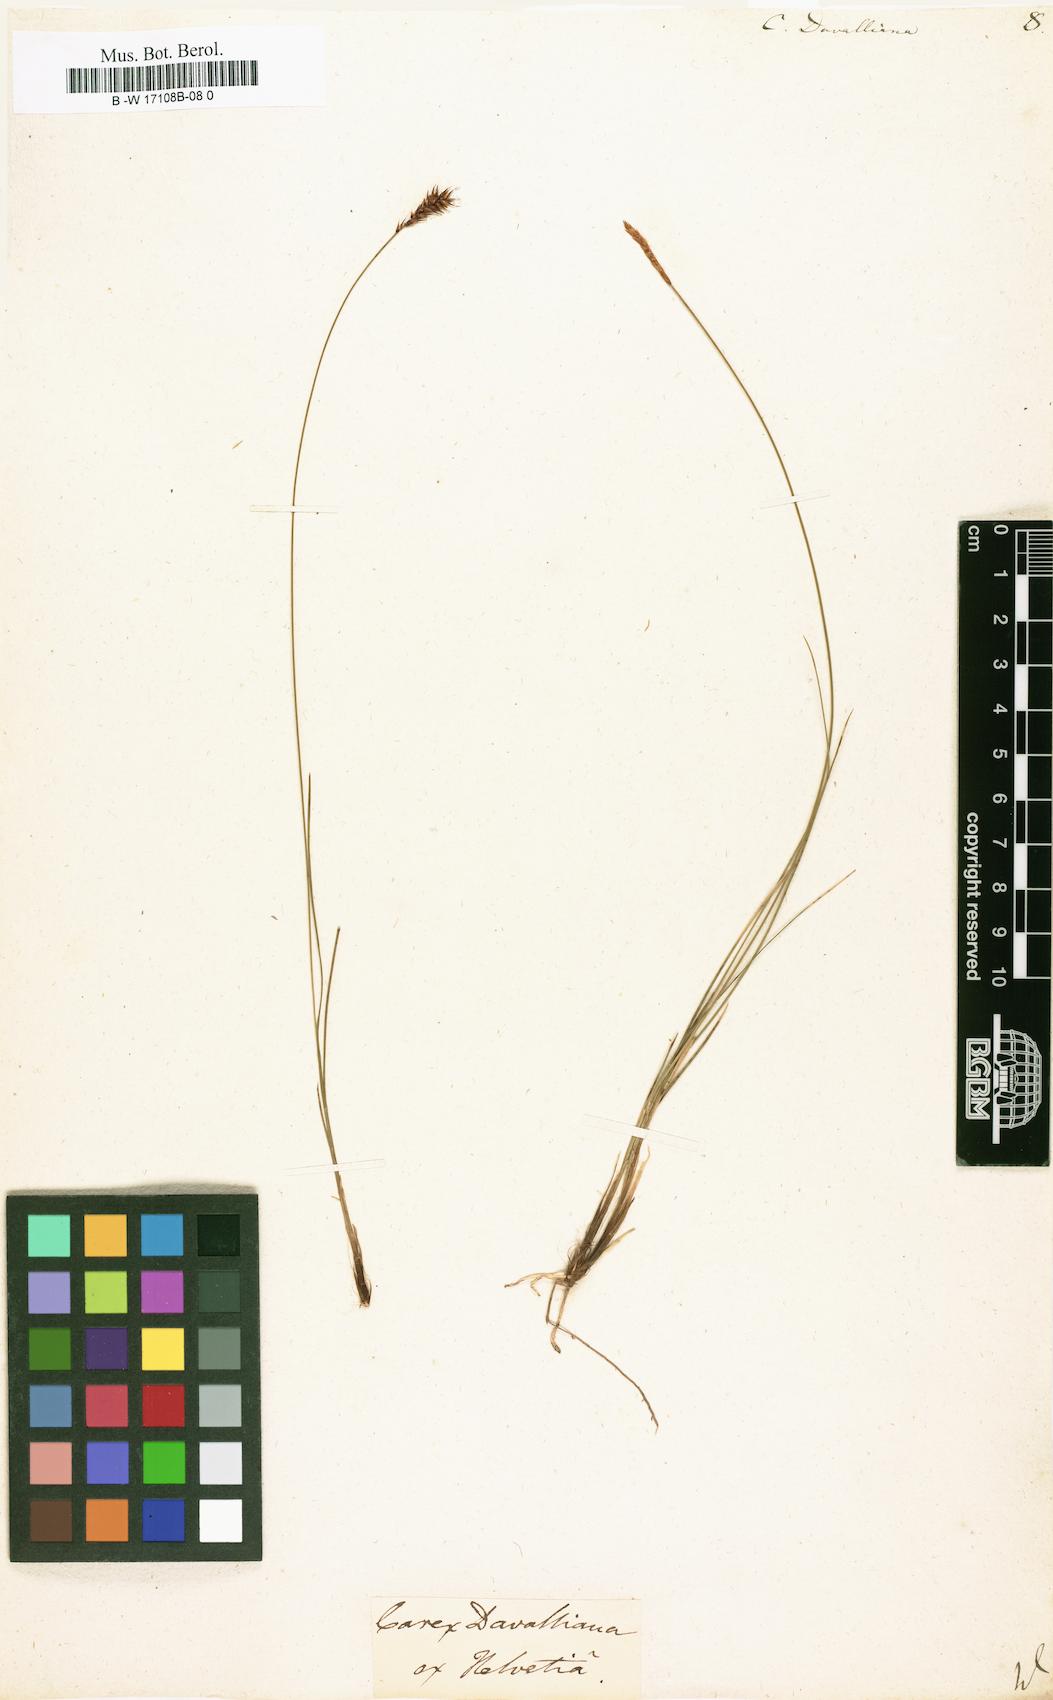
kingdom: Plantae
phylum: Tracheophyta
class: Liliopsida
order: Poales
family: Cyperaceae
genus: Carex
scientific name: Carex davalliana
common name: Davall's sedge
